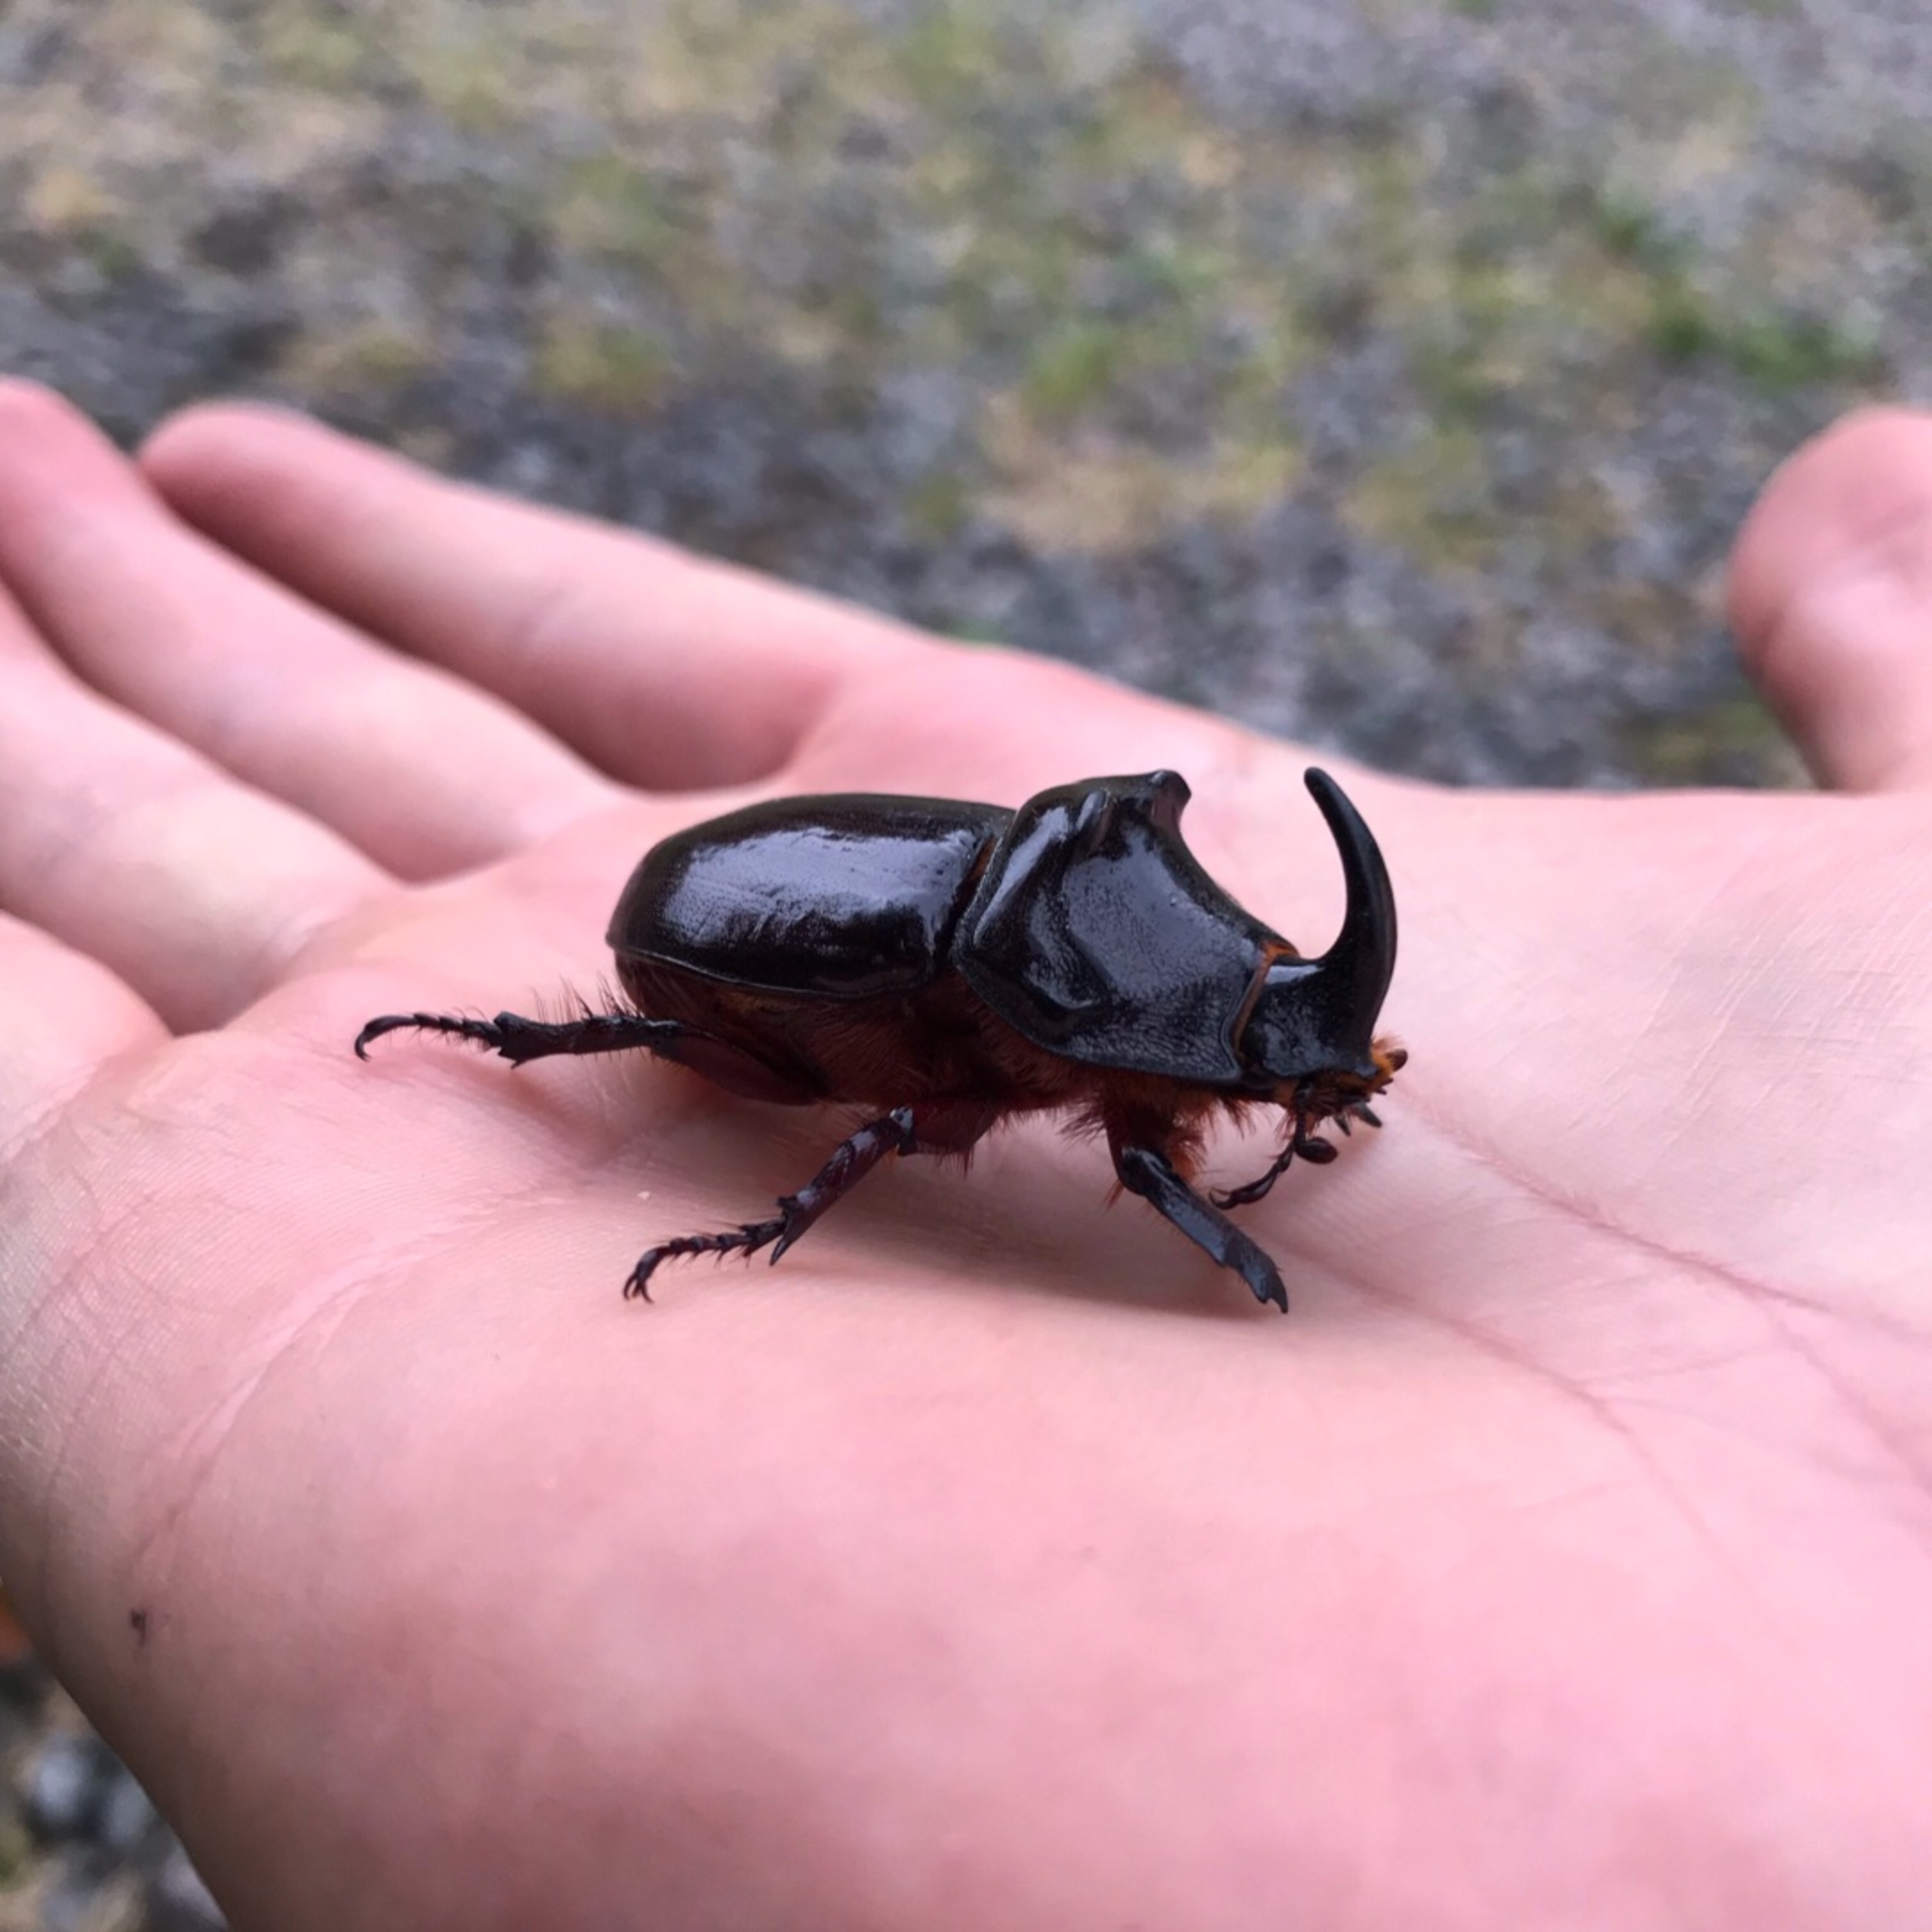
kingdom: Animalia
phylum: Arthropoda
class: Insecta
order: Coleoptera
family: Scarabaeidae
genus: Oryctes
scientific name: Oryctes nasicornis
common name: Næsehornsbille
